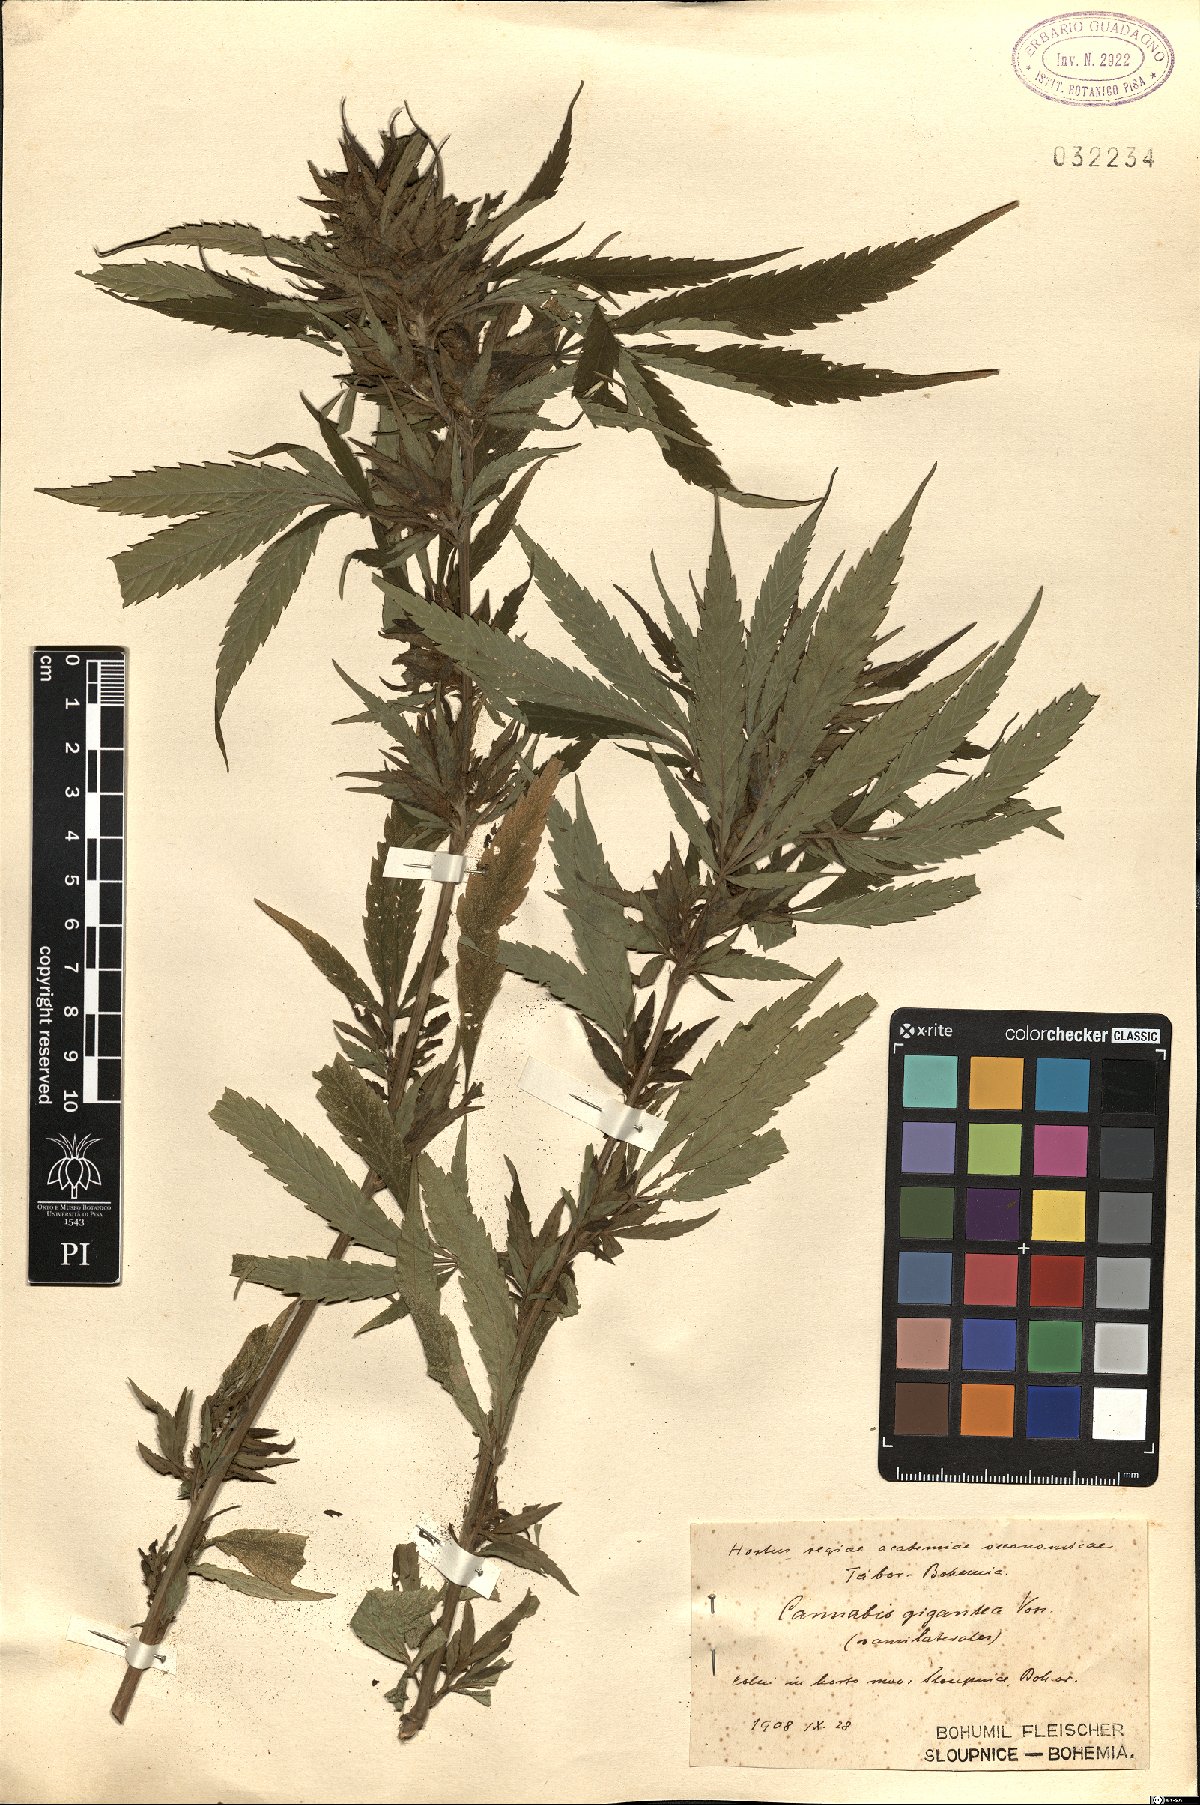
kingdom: Plantae
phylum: Tracheophyta
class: Magnoliopsida
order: Rosales
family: Cannabaceae
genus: Cannabis
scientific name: Cannabis sativa
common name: Hemp
